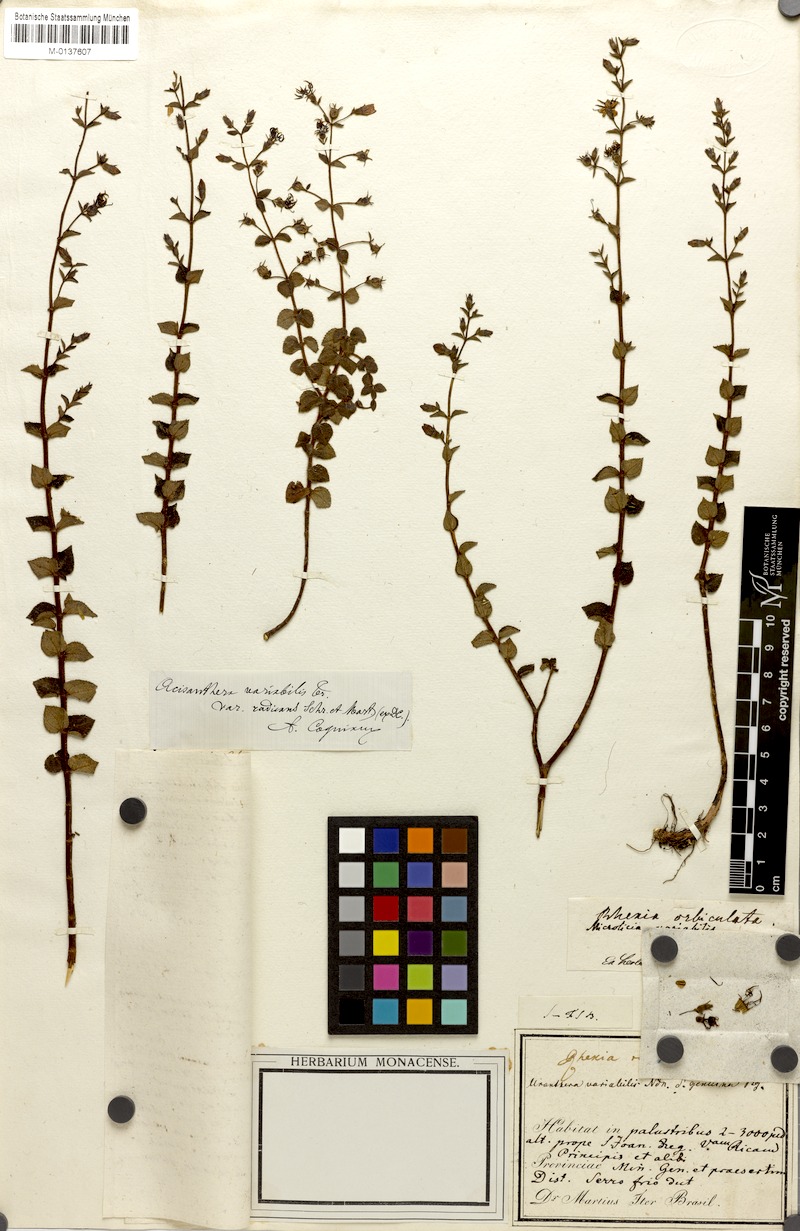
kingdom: Plantae
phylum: Tracheophyta
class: Magnoliopsida
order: Myrtales
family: Melastomataceae
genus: Acisanthera
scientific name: Acisanthera variabilis
